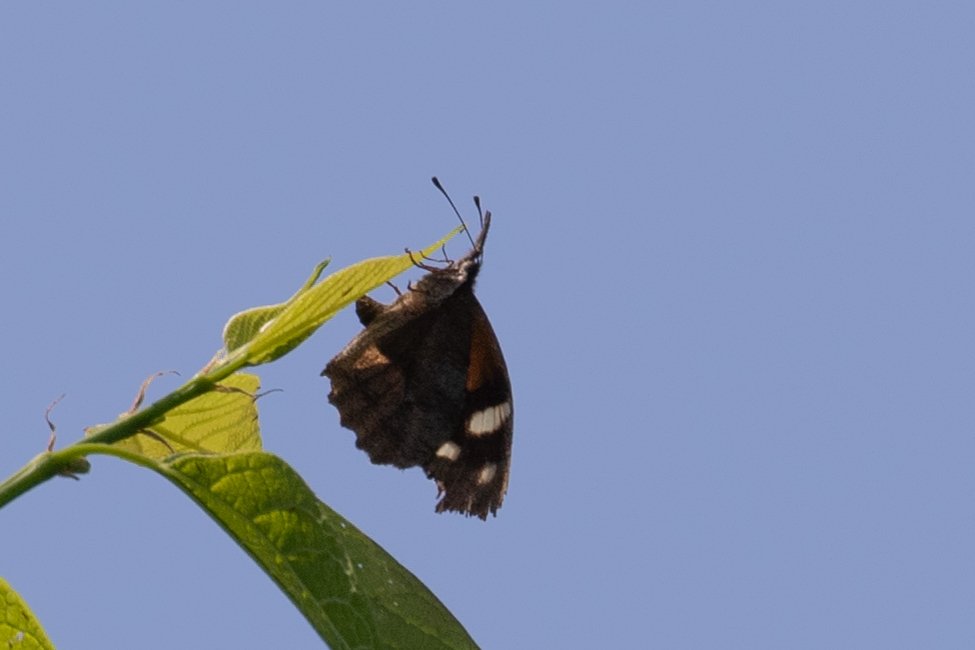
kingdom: Animalia
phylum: Arthropoda
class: Insecta
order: Lepidoptera
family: Nymphalidae
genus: Libytheana
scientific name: Libytheana carinenta
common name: American Snout
